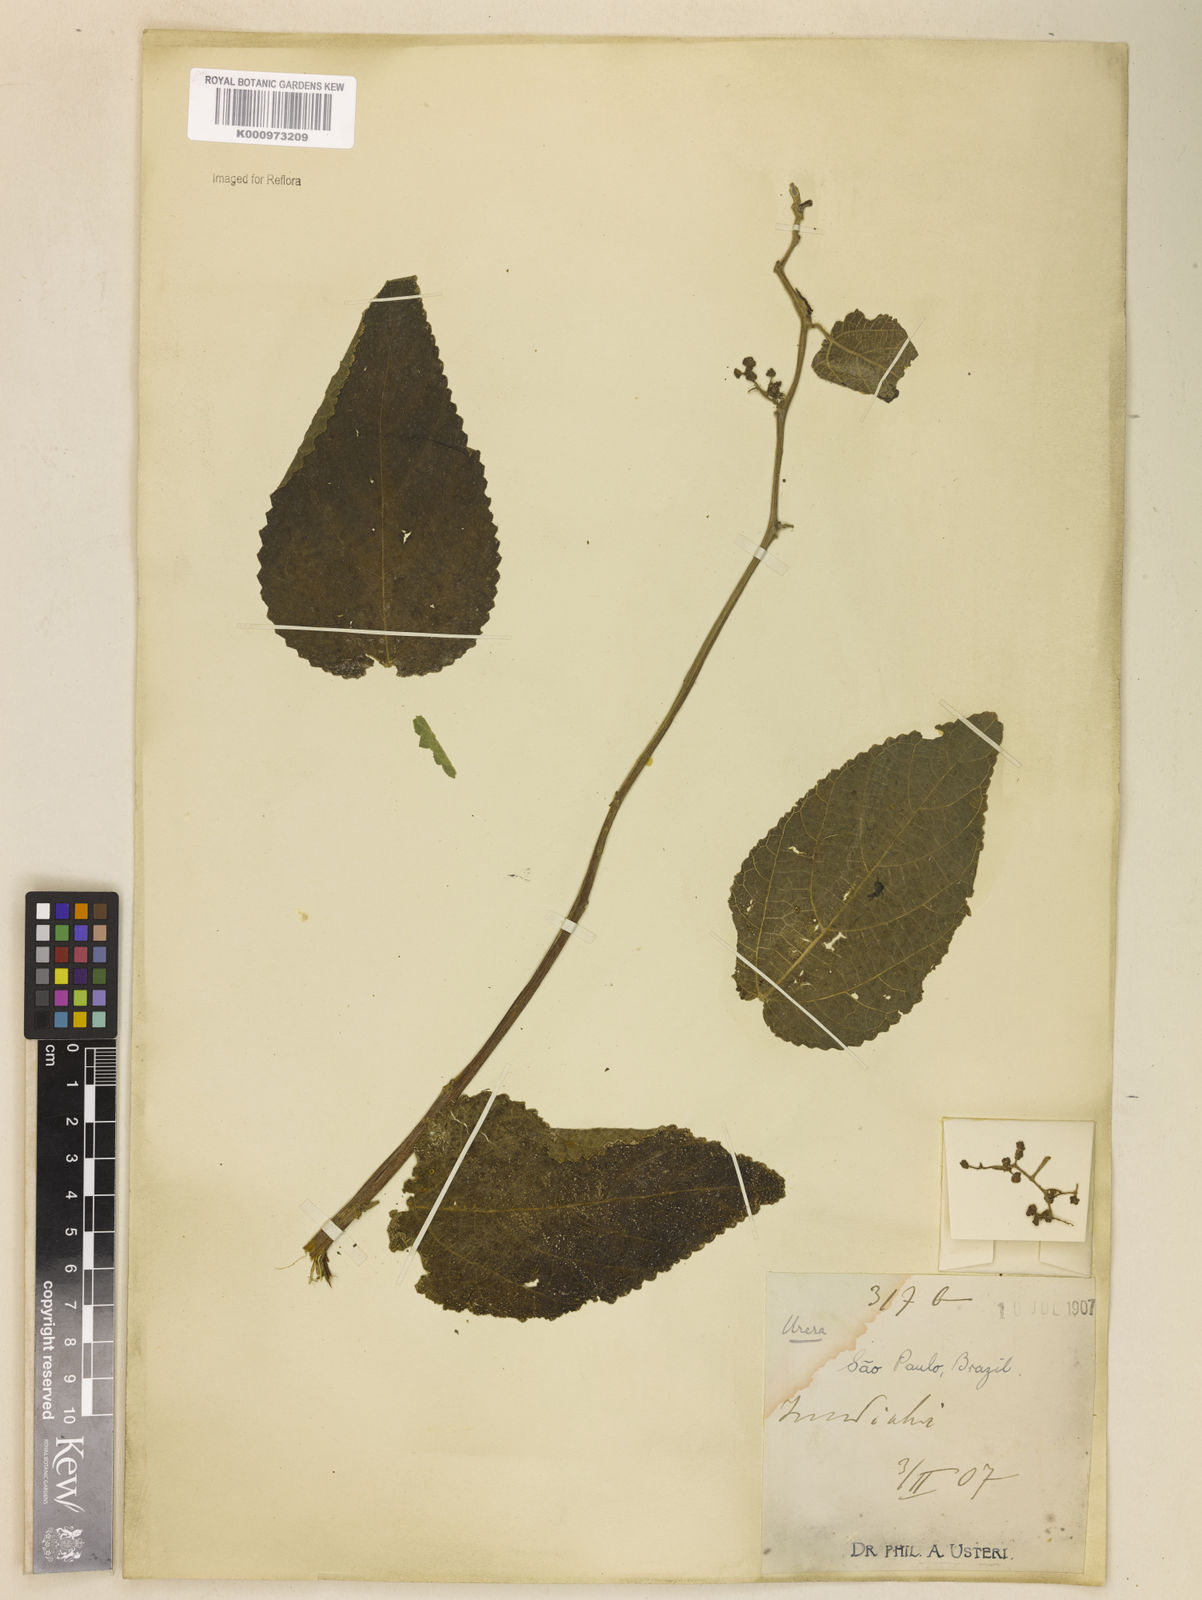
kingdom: Plantae
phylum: Tracheophyta
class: Magnoliopsida
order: Rosales
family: Urticaceae
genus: Urera
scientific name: Urera caracasana
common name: Flameberry
